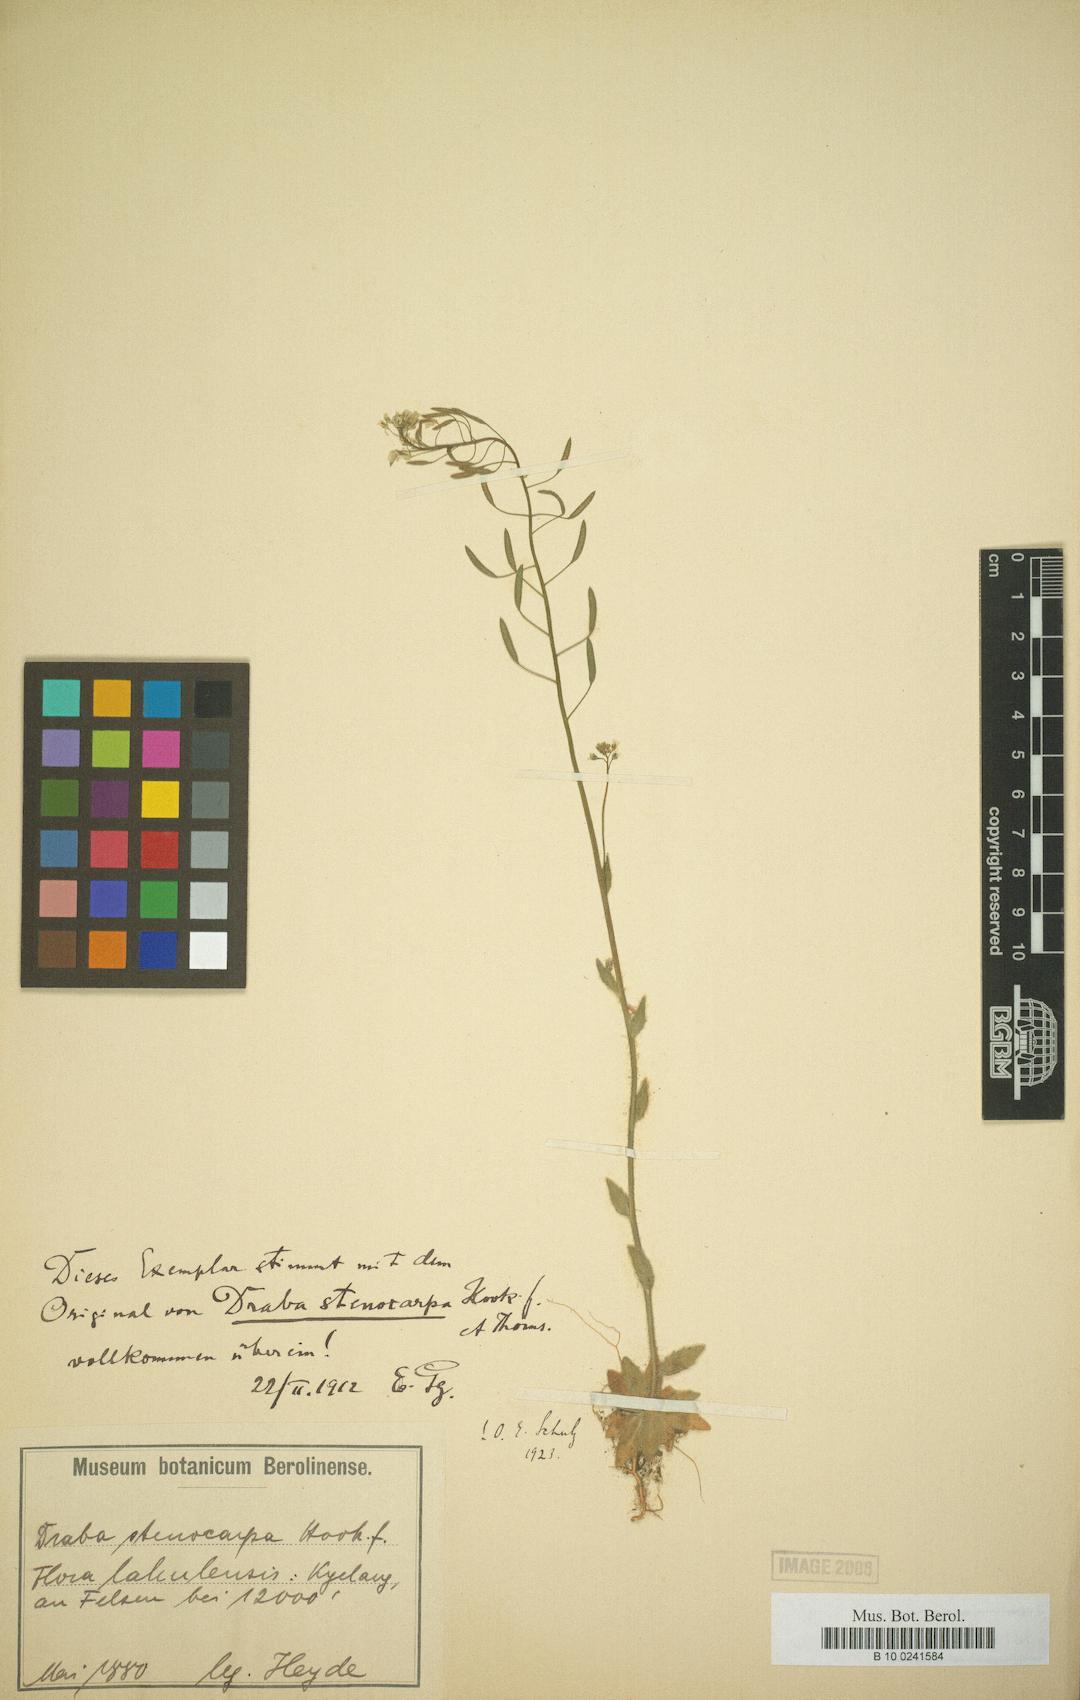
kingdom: Plantae
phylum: Tracheophyta
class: Magnoliopsida
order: Brassicales
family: Brassicaceae
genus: Draba
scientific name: Draba stenocarpa
